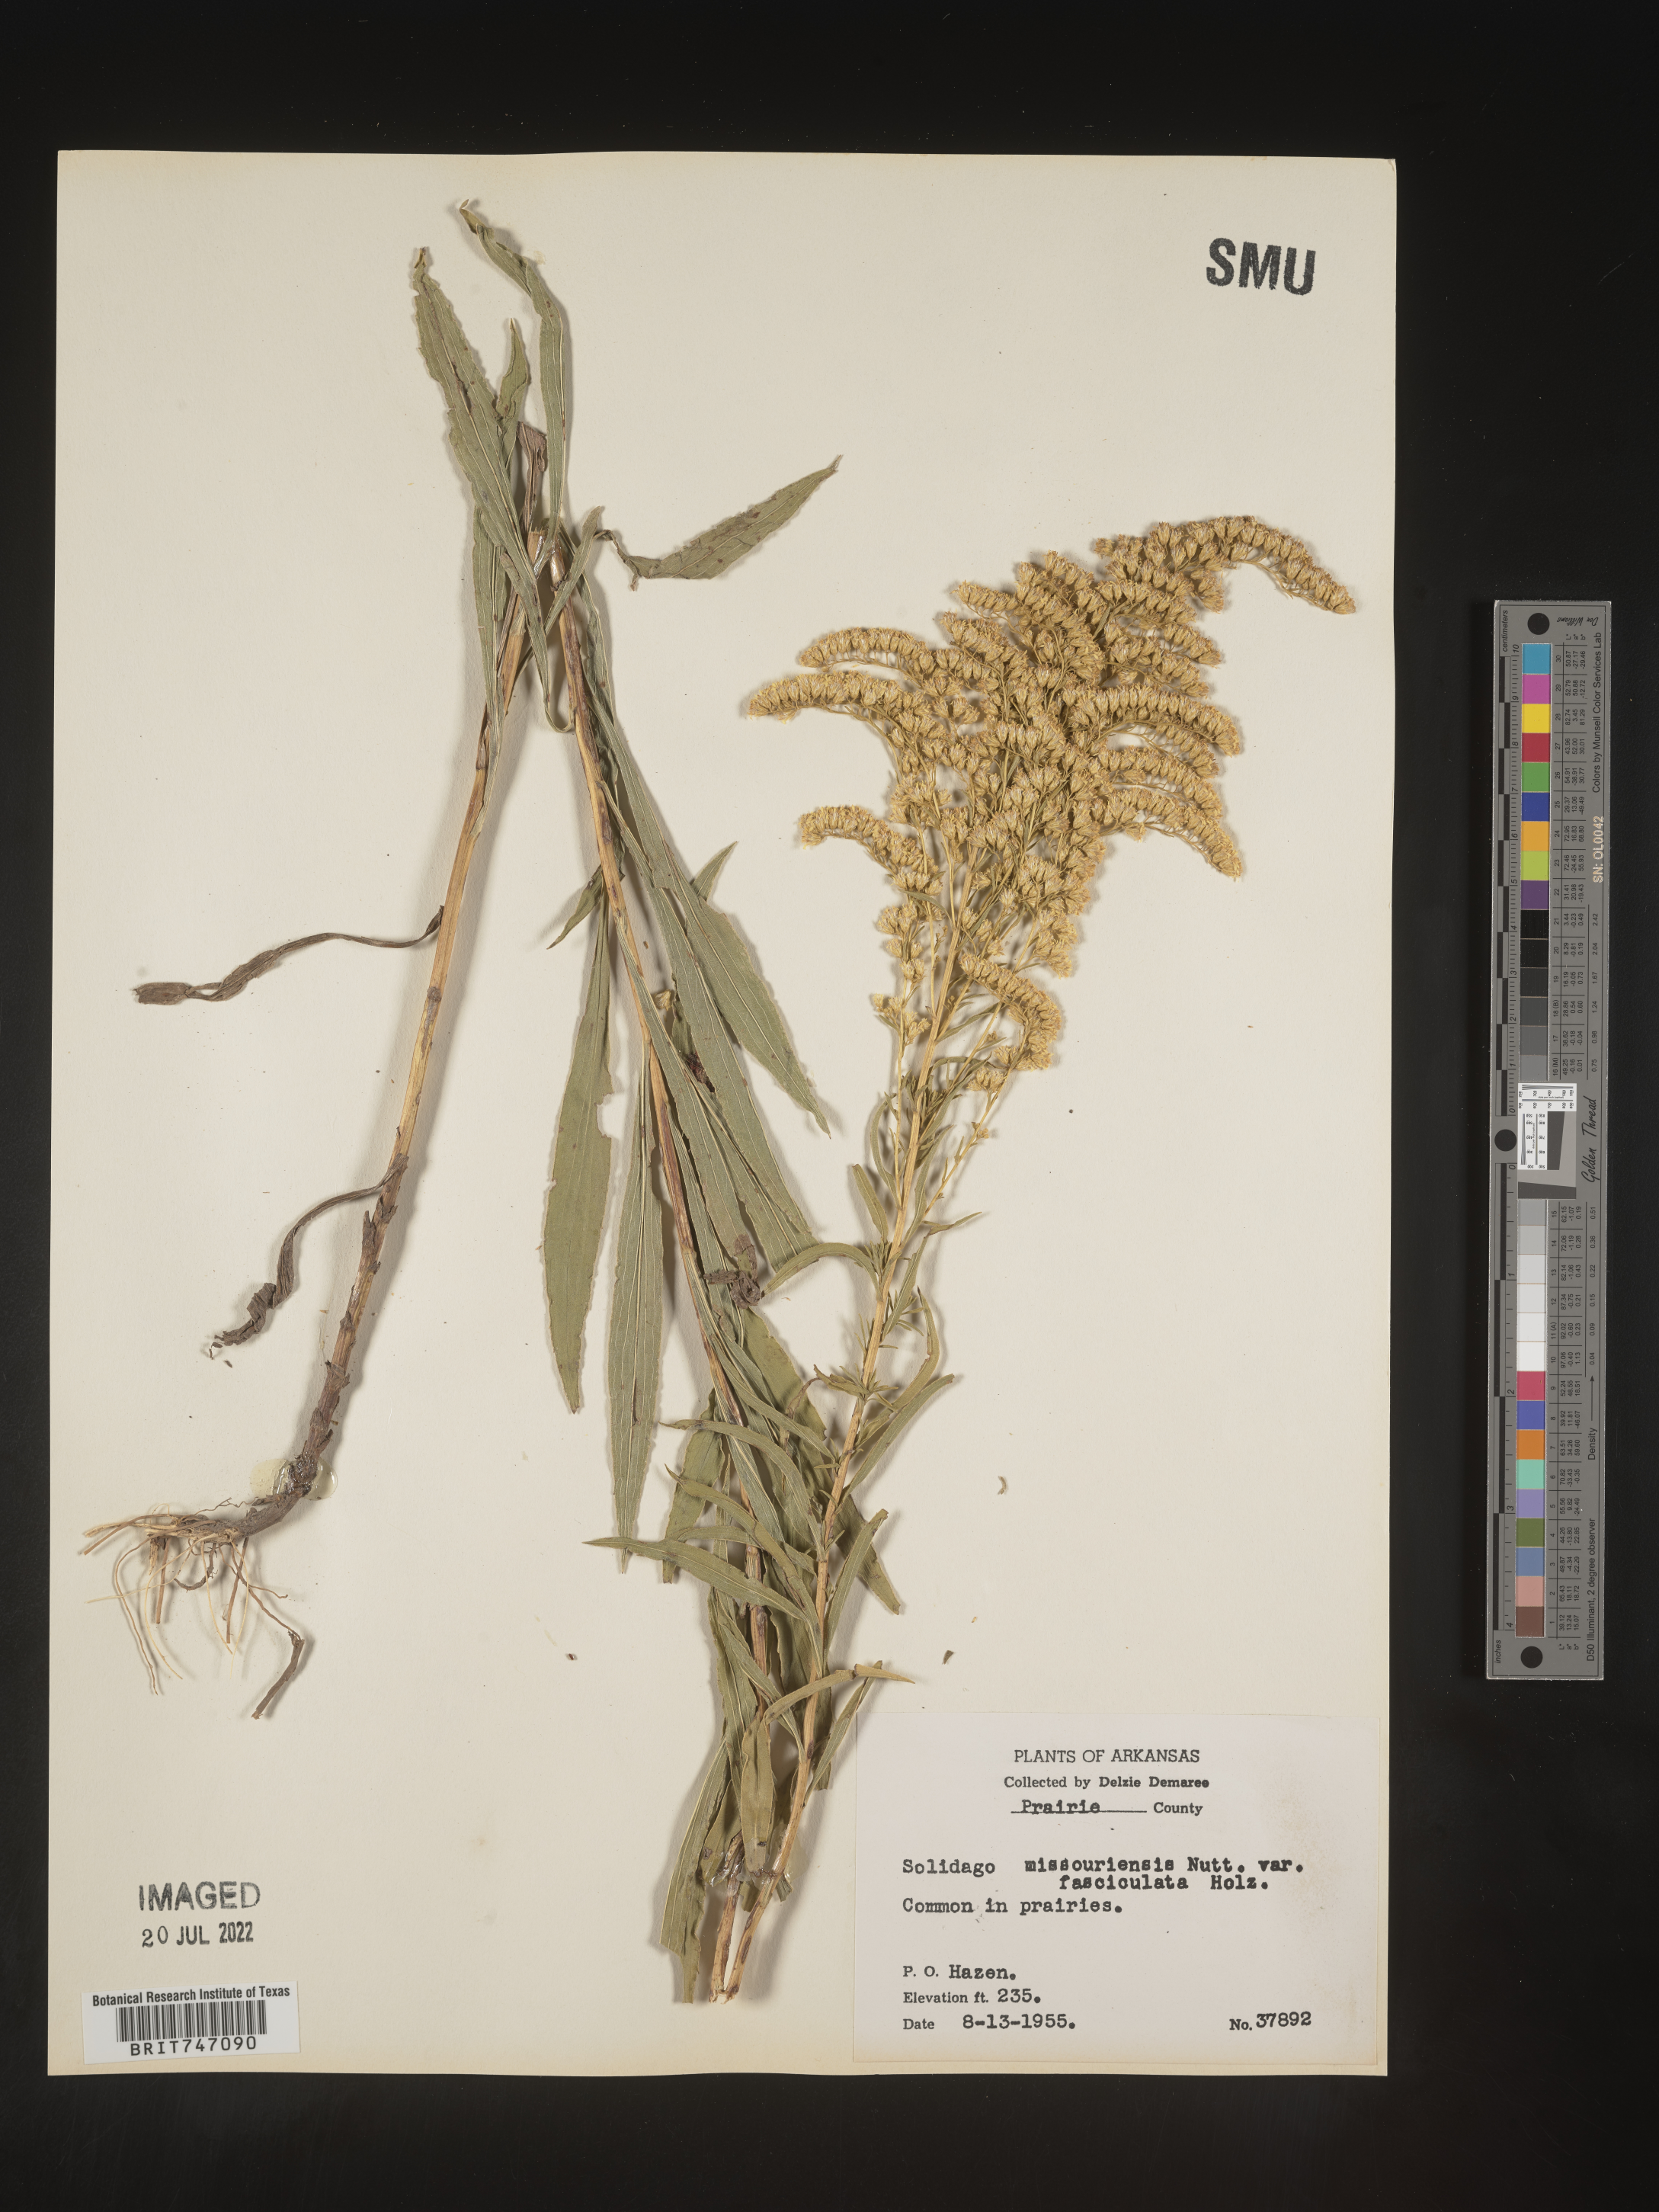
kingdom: Plantae
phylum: Tracheophyta
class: Magnoliopsida
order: Asterales
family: Asteraceae
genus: Solidago
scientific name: Solidago missouriensis
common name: Prairie goldenrod
